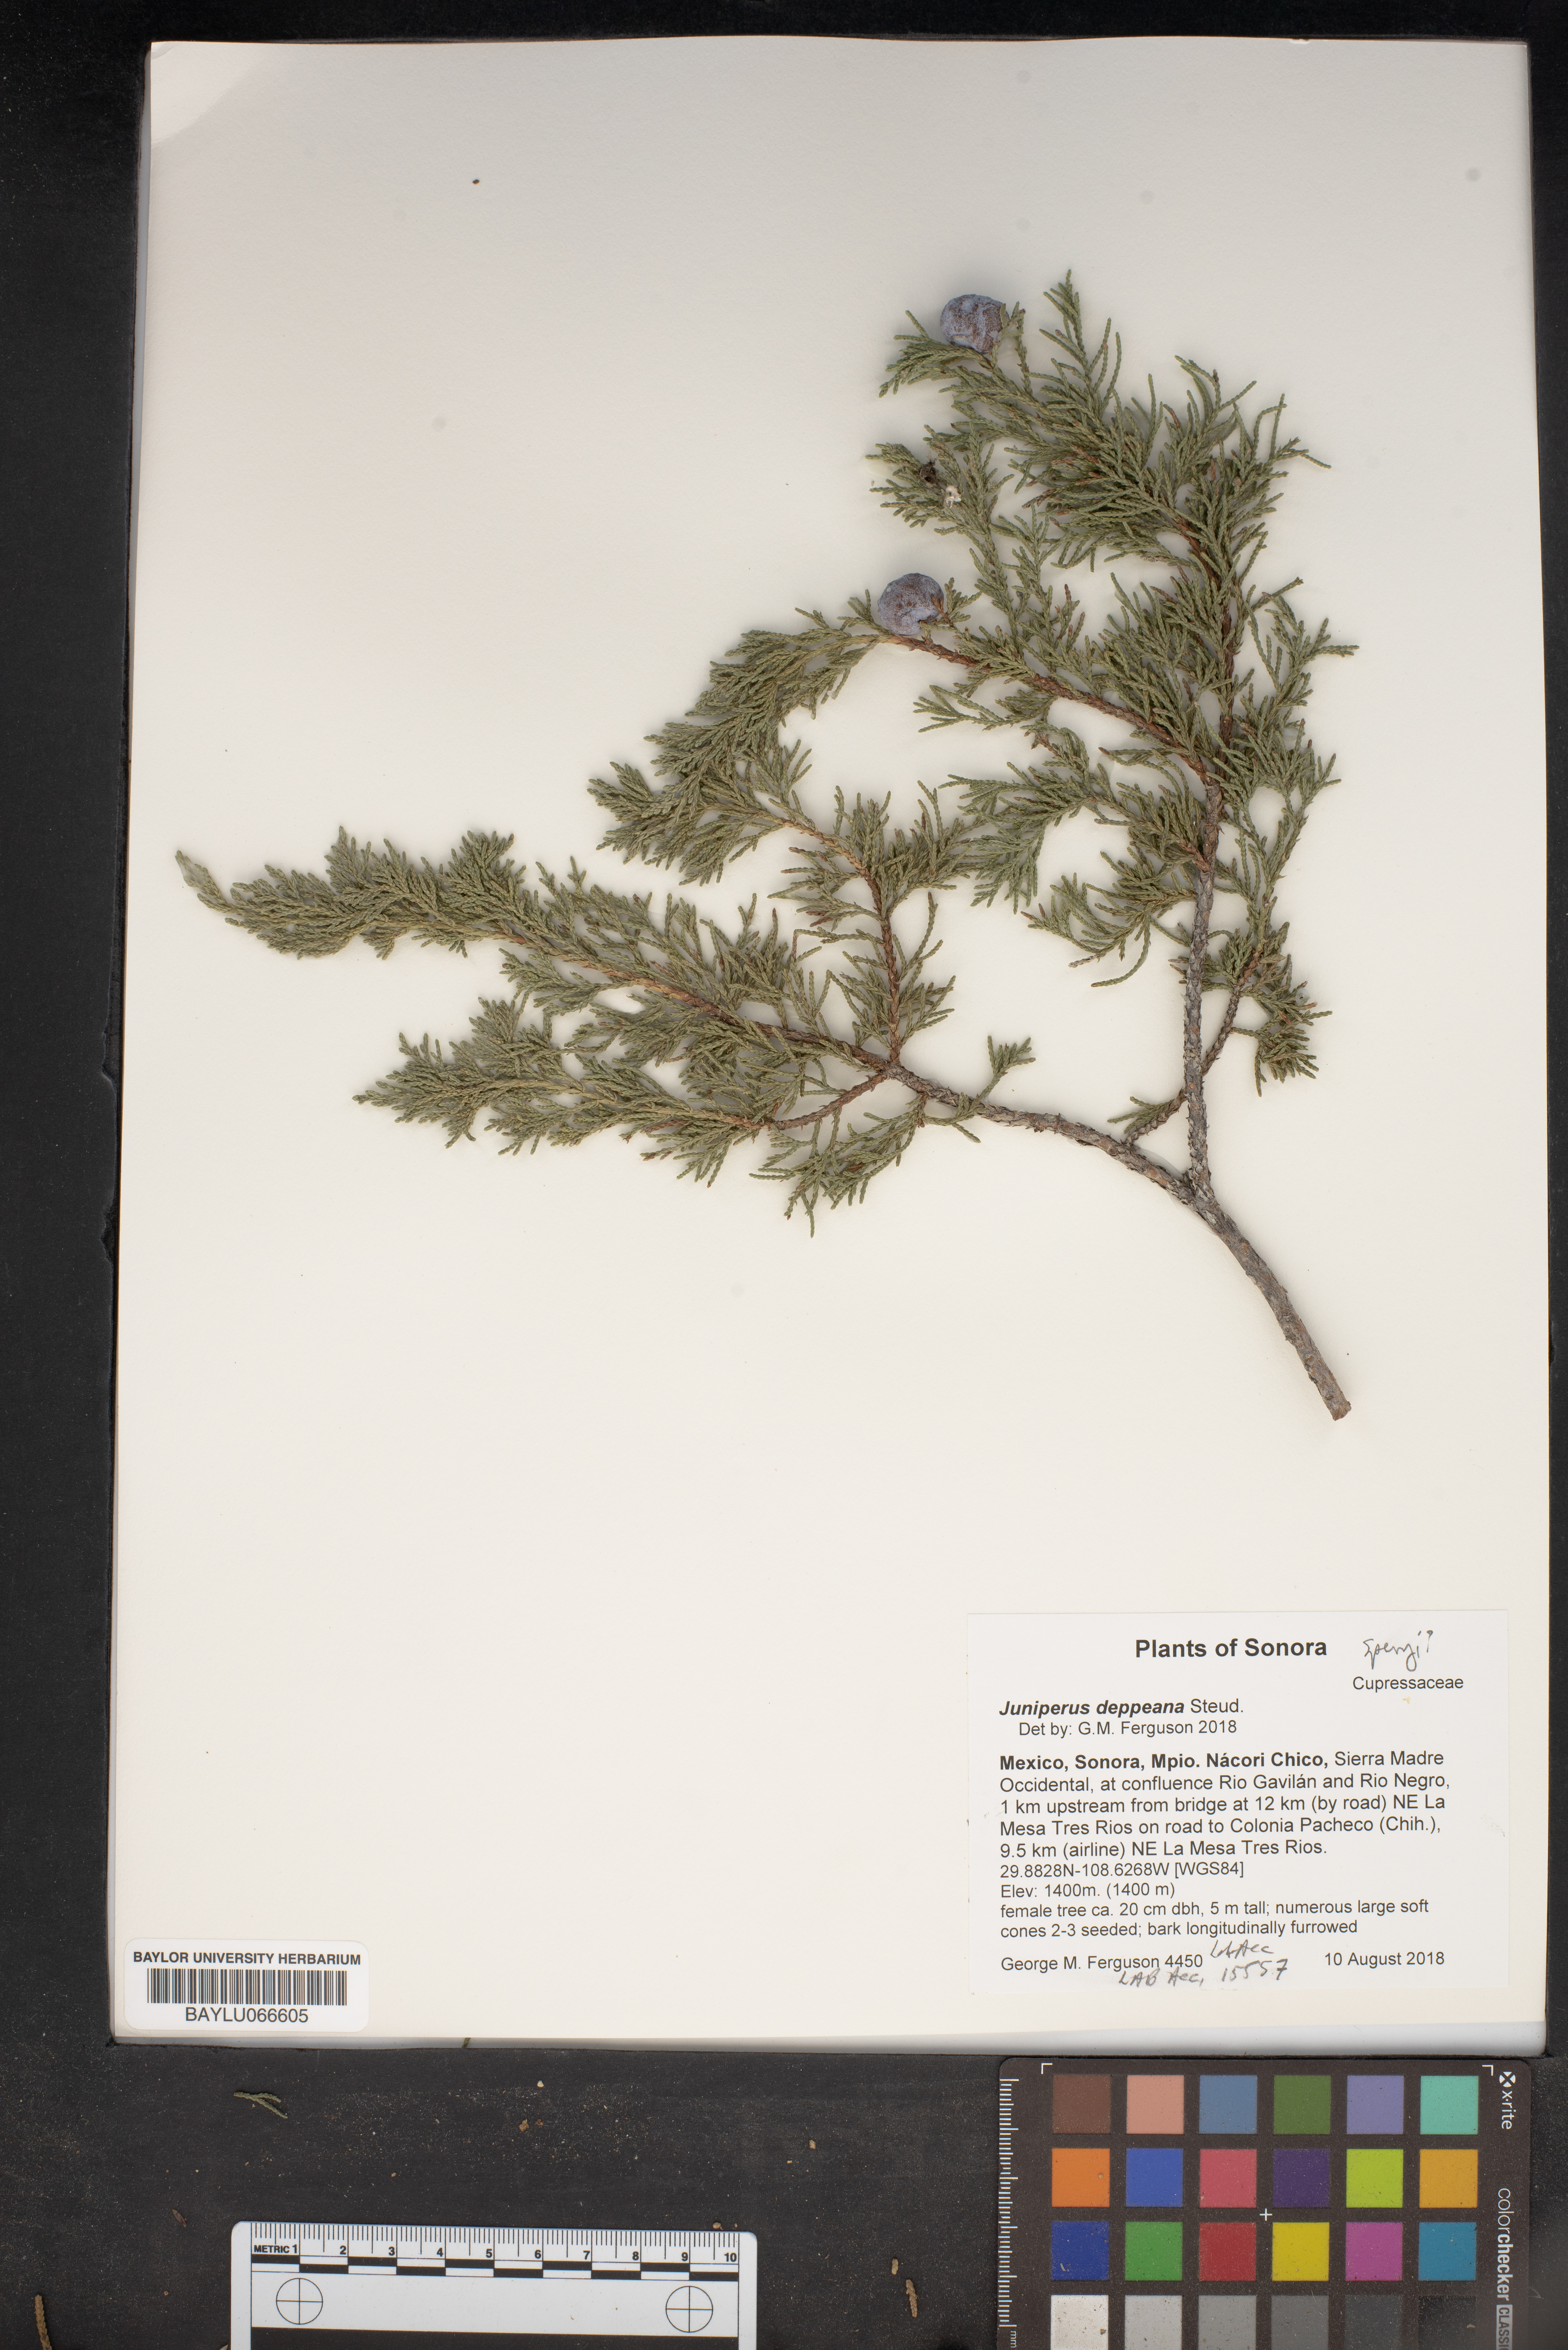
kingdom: Plantae
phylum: Tracheophyta
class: Pinopsida
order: Pinales
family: Cupressaceae
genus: Juniperus
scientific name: Juniperus deppeana
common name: Alligator juniper
